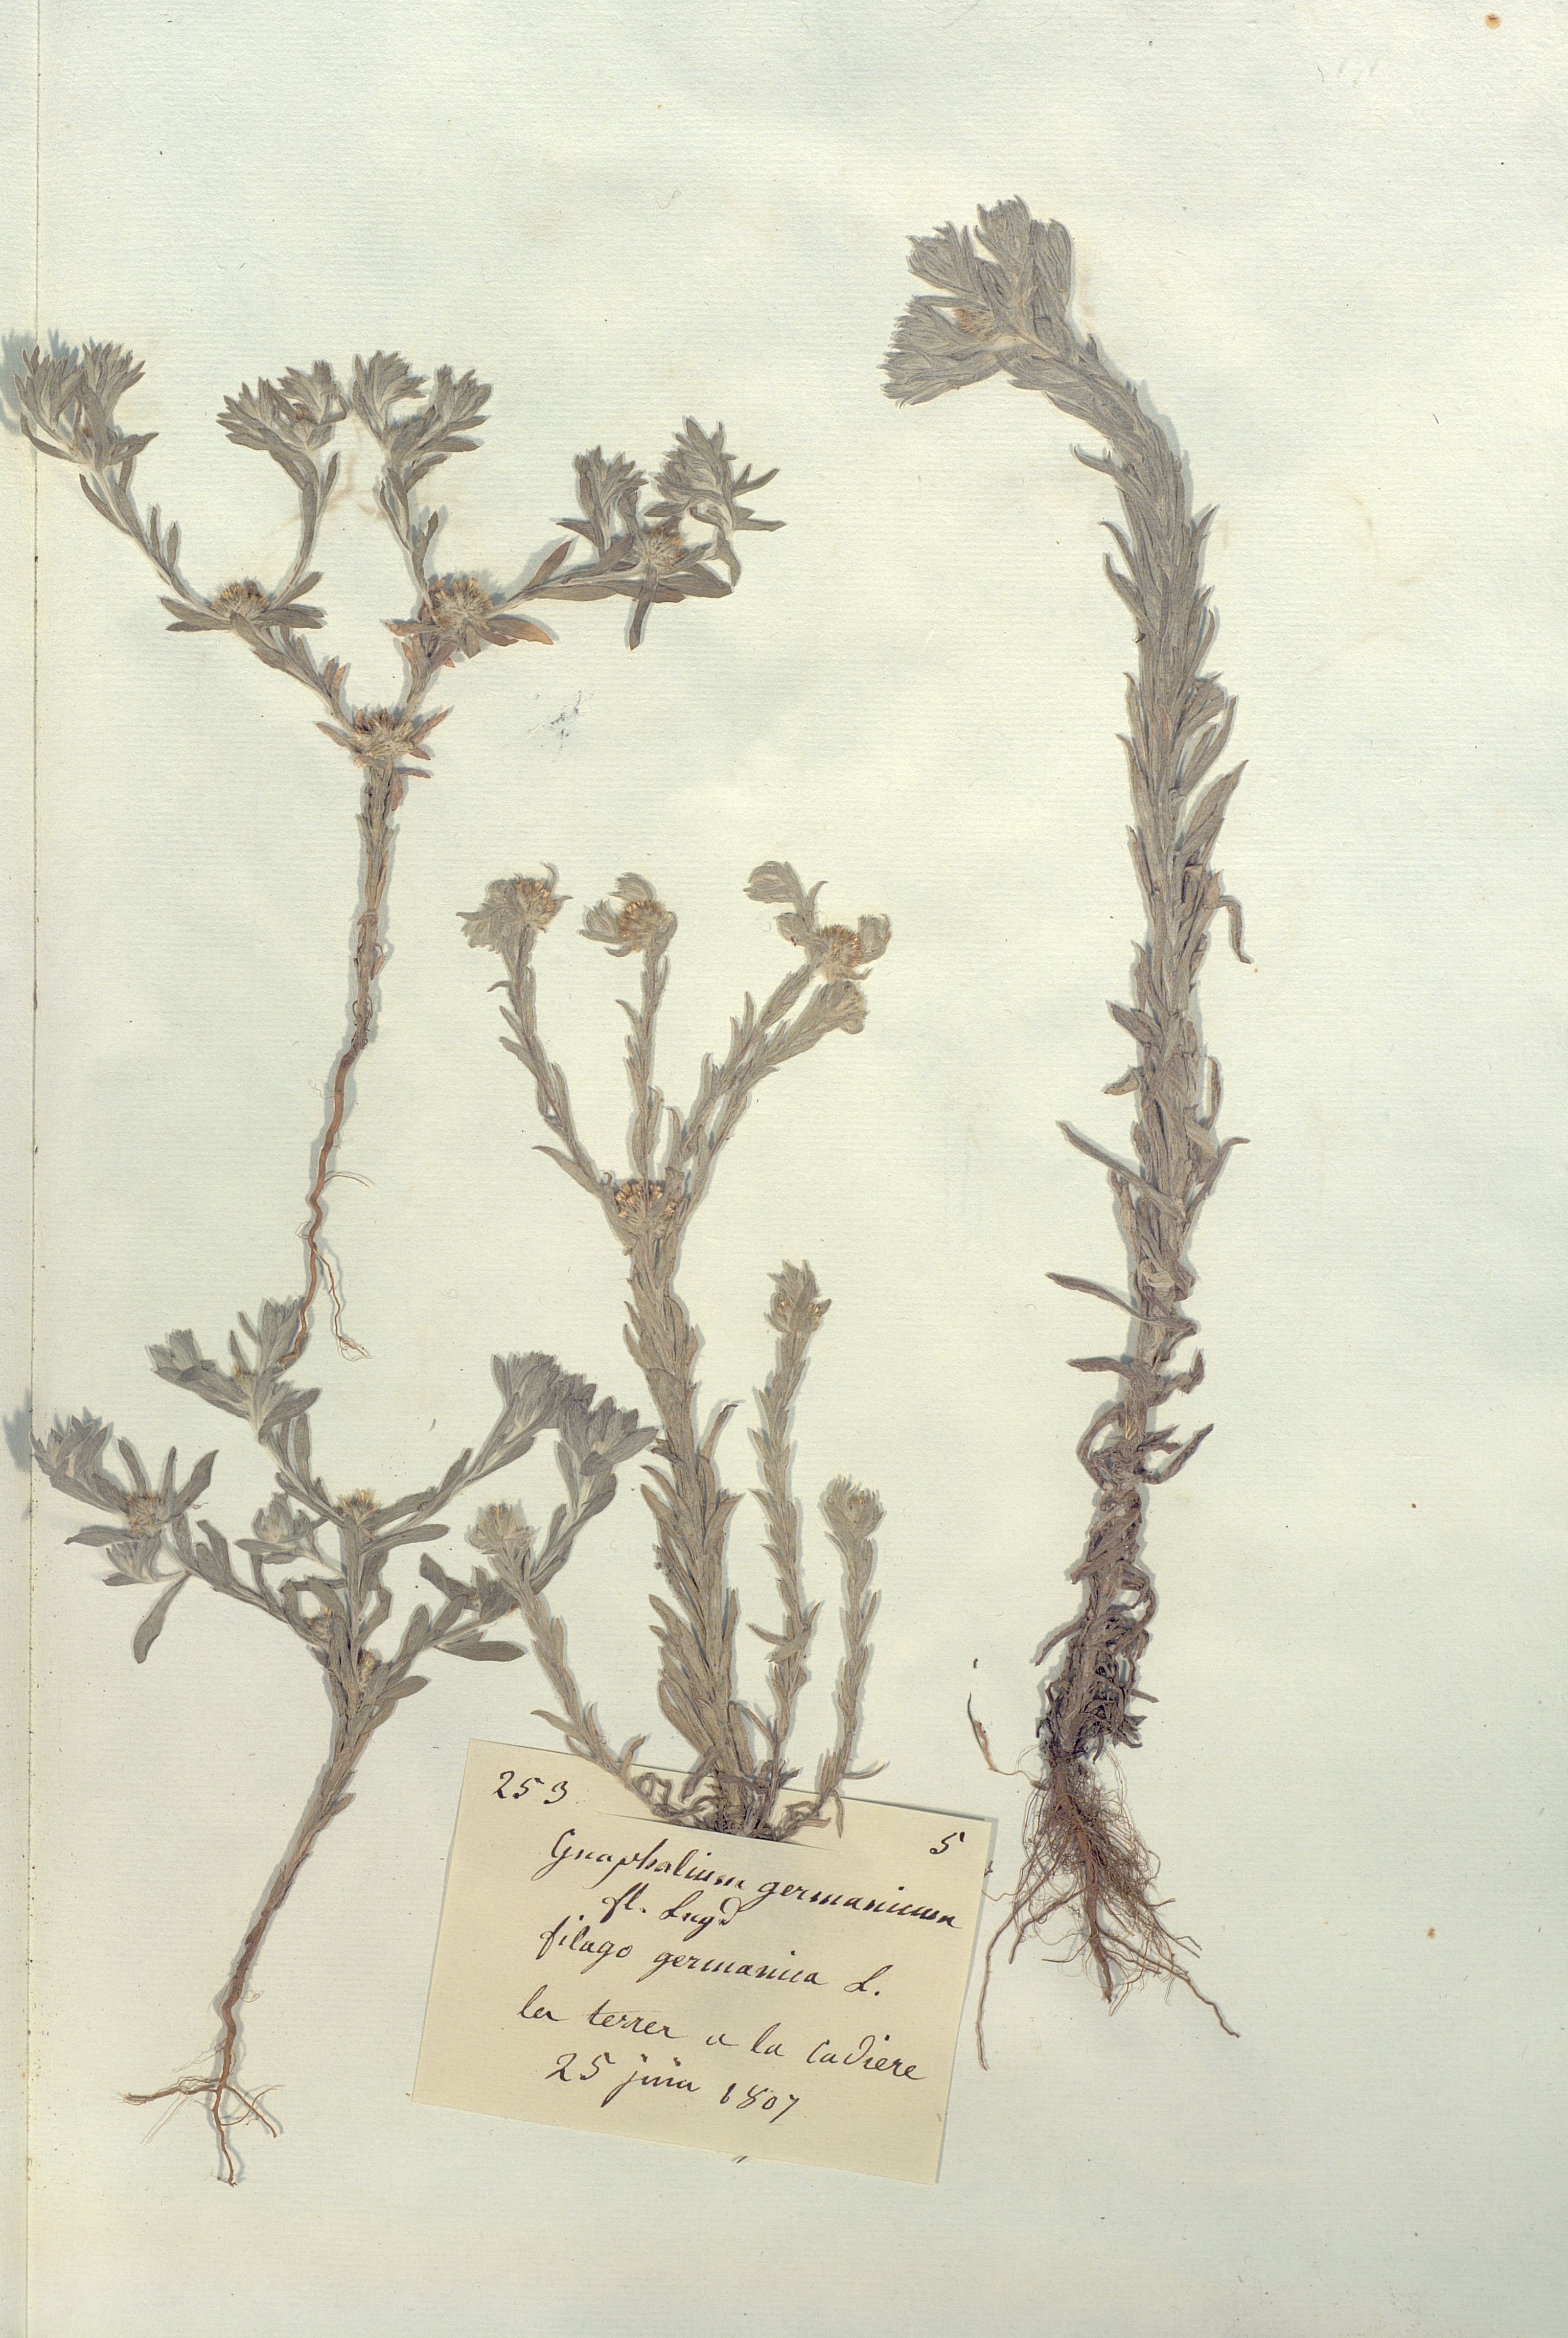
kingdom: Plantae
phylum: Tracheophyta
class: Magnoliopsida
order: Asterales
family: Asteraceae
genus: Filago
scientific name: Filago
